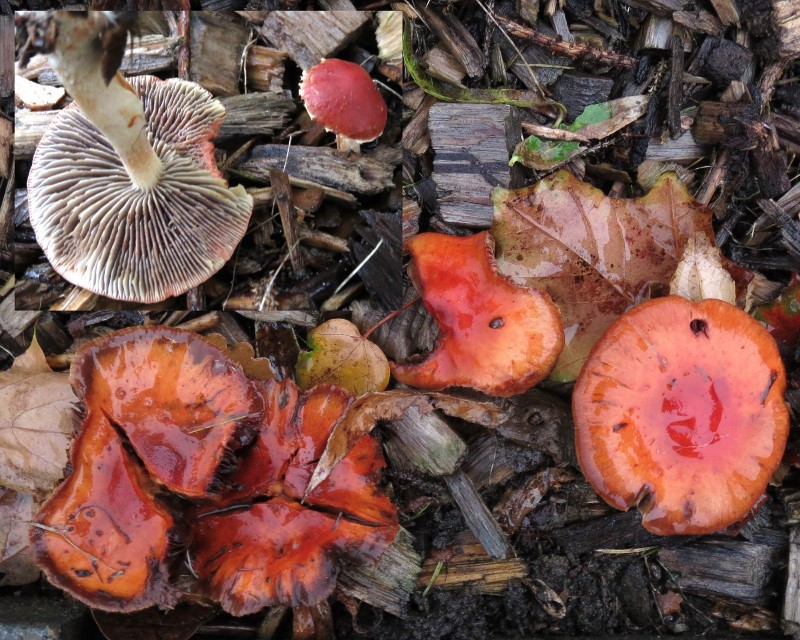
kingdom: Fungi
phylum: Basidiomycota
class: Agaricomycetes
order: Agaricales
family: Strophariaceae
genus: Leratiomyces
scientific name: Leratiomyces ceres
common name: orange bredblad
